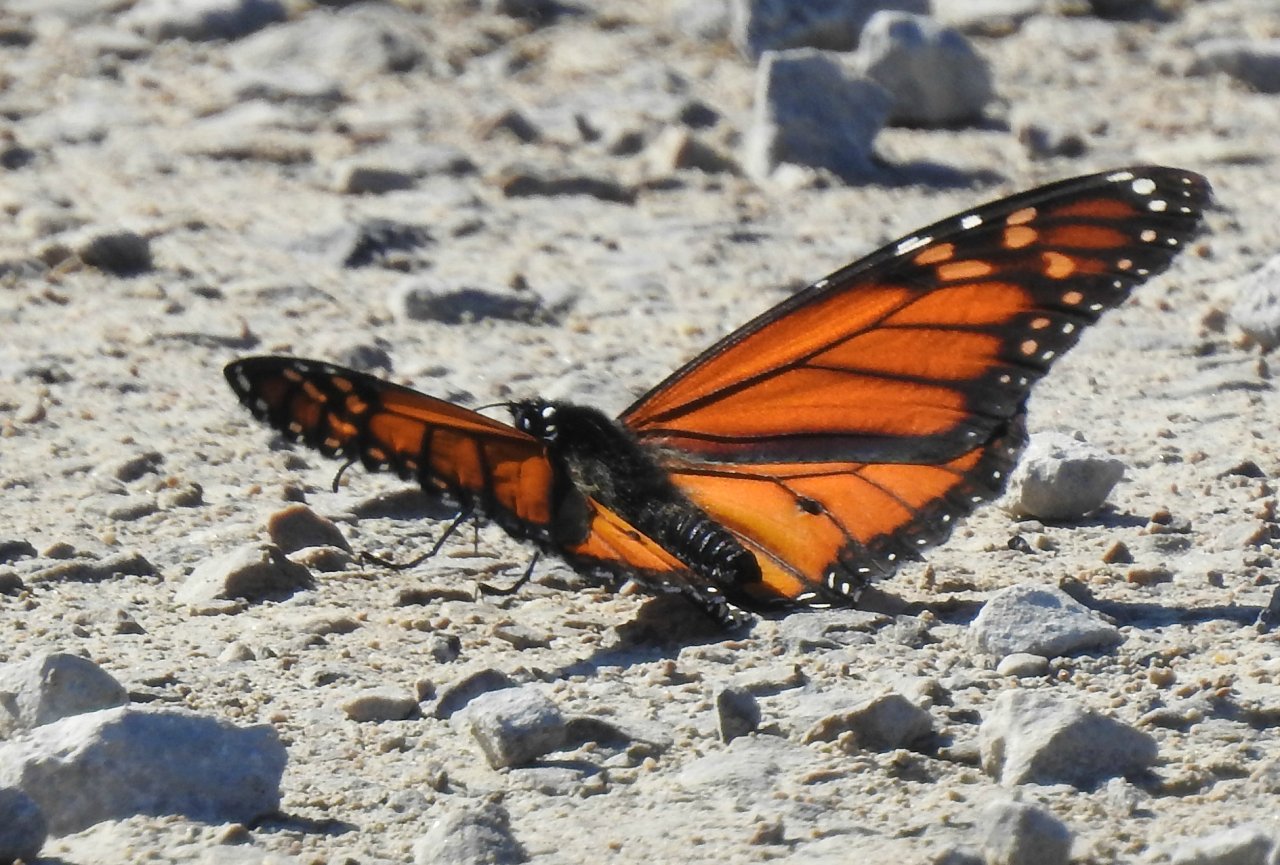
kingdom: Animalia
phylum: Arthropoda
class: Insecta
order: Lepidoptera
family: Nymphalidae
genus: Danaus
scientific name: Danaus plexippus
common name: Monarch
